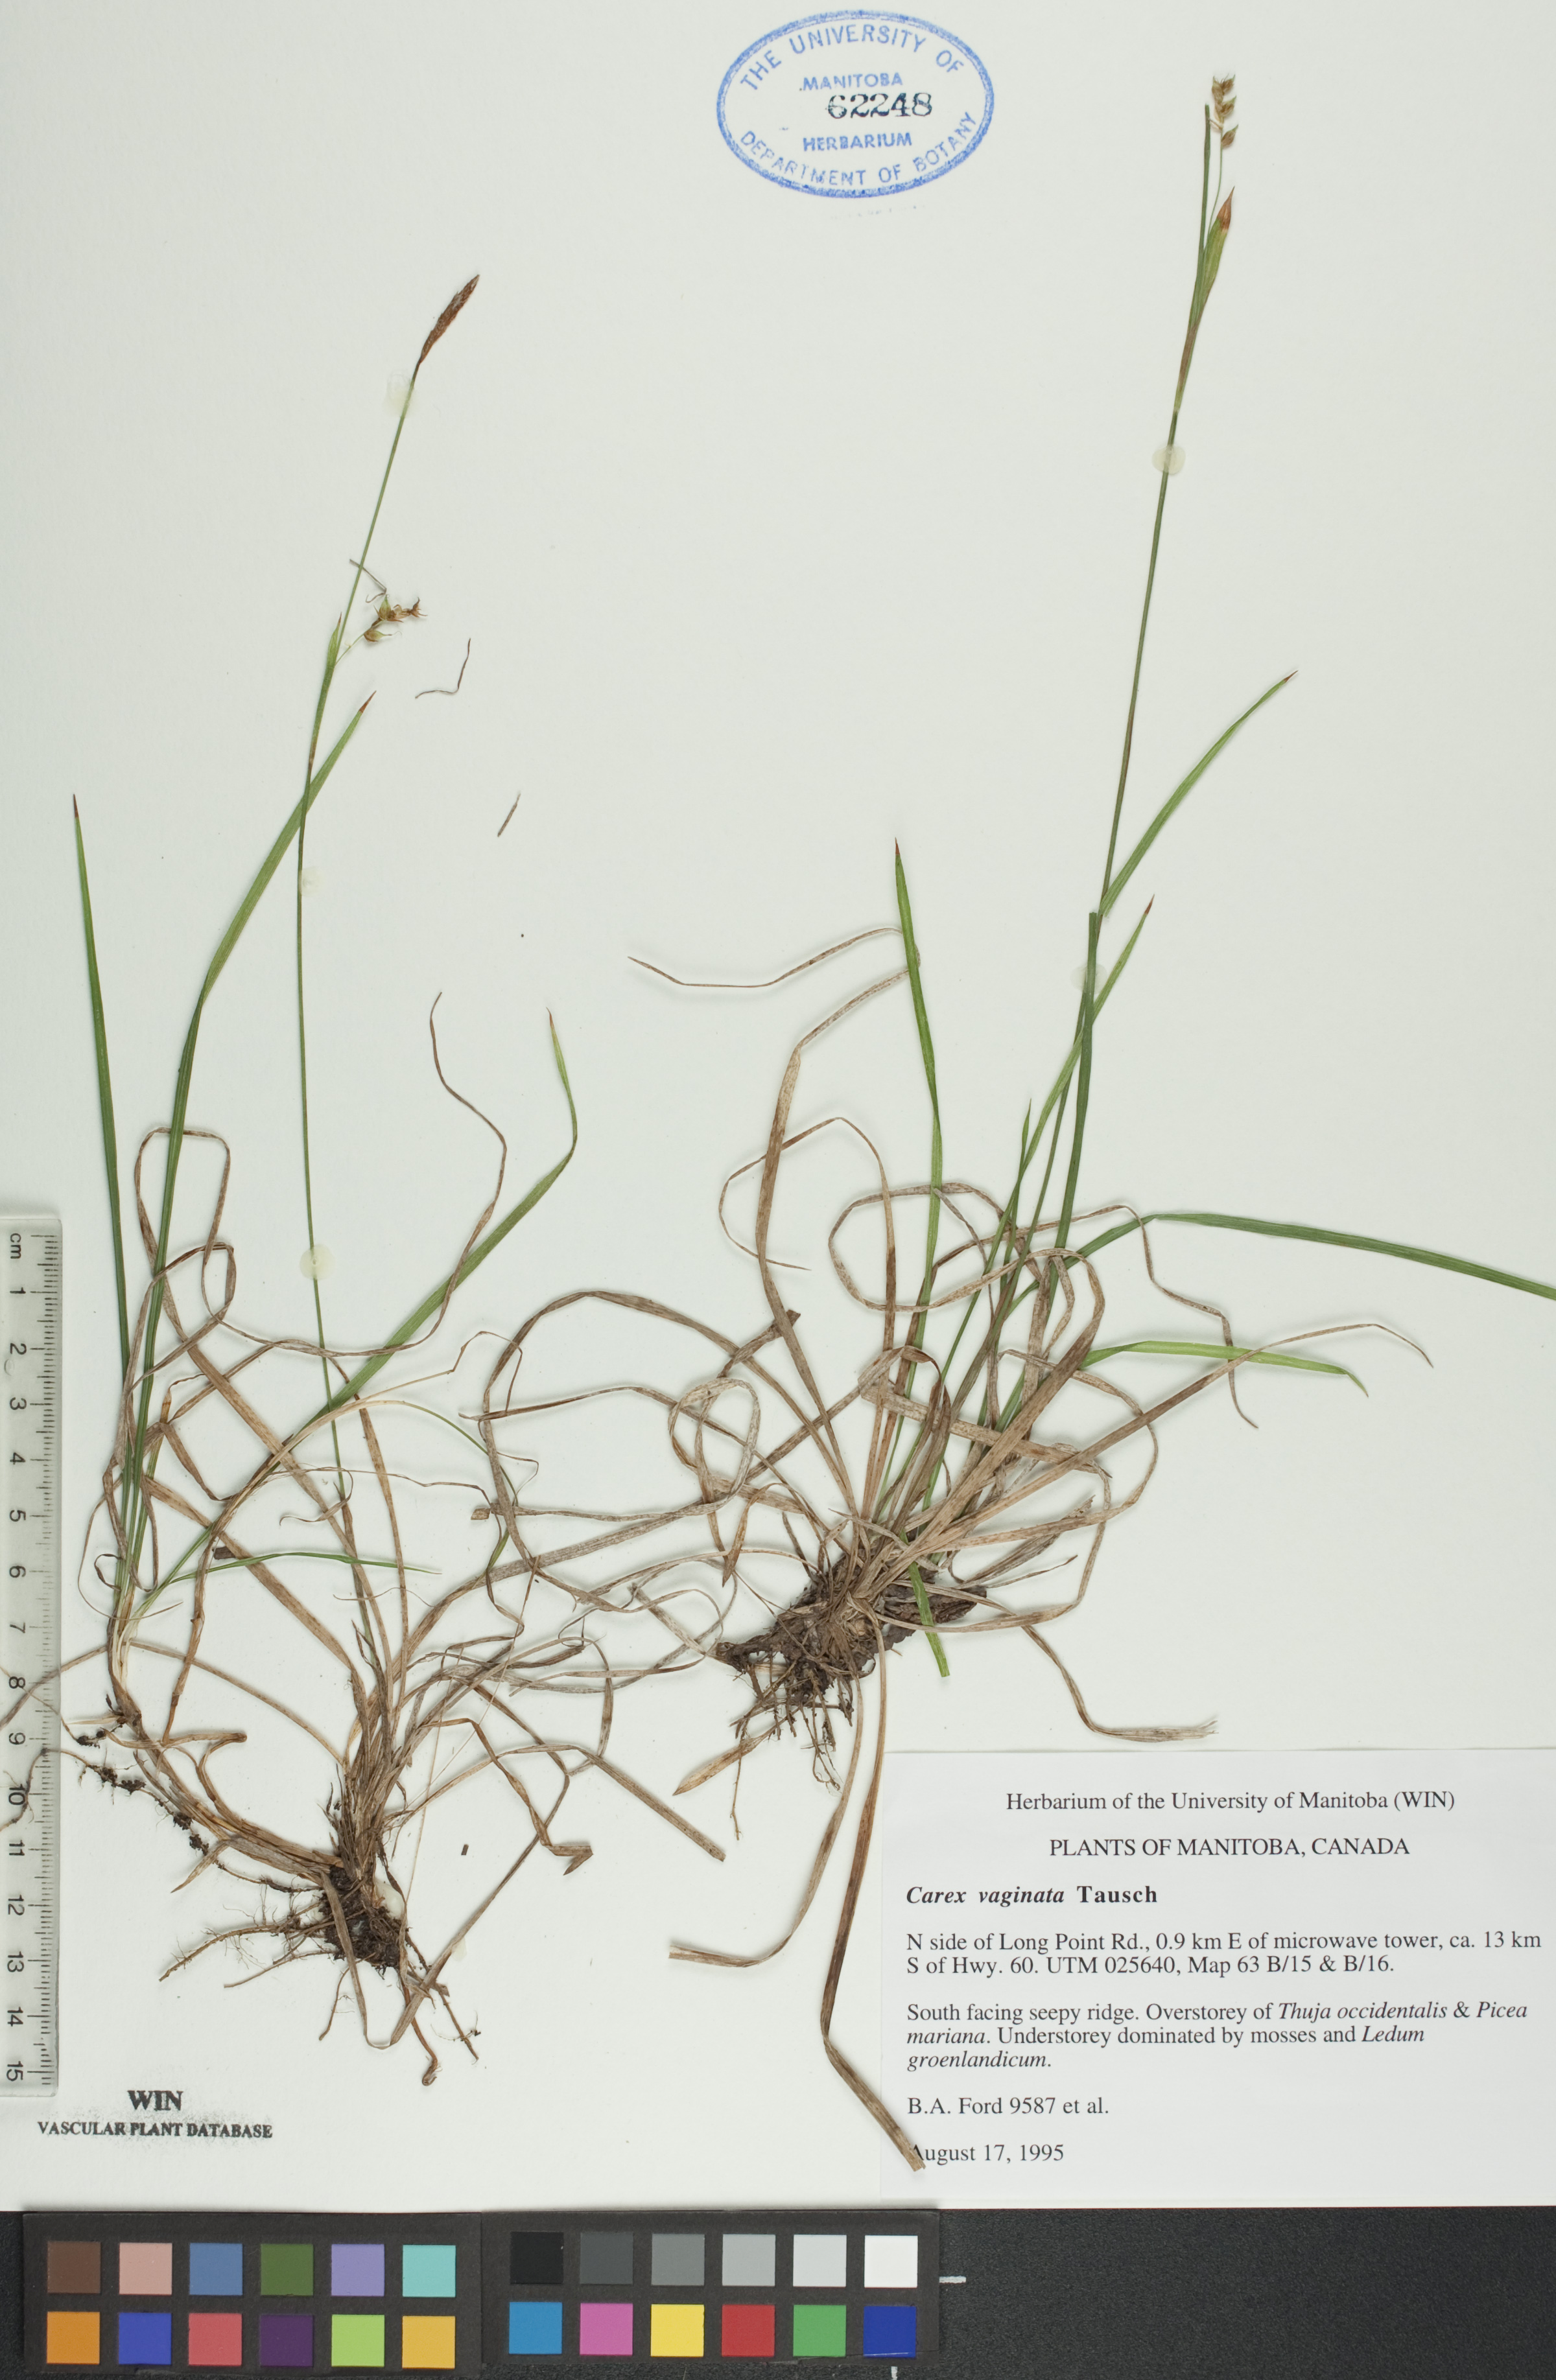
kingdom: Plantae
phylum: Tracheophyta
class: Liliopsida
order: Poales
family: Cyperaceae
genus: Carex
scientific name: Carex vaginata
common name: Sheathed sedge
